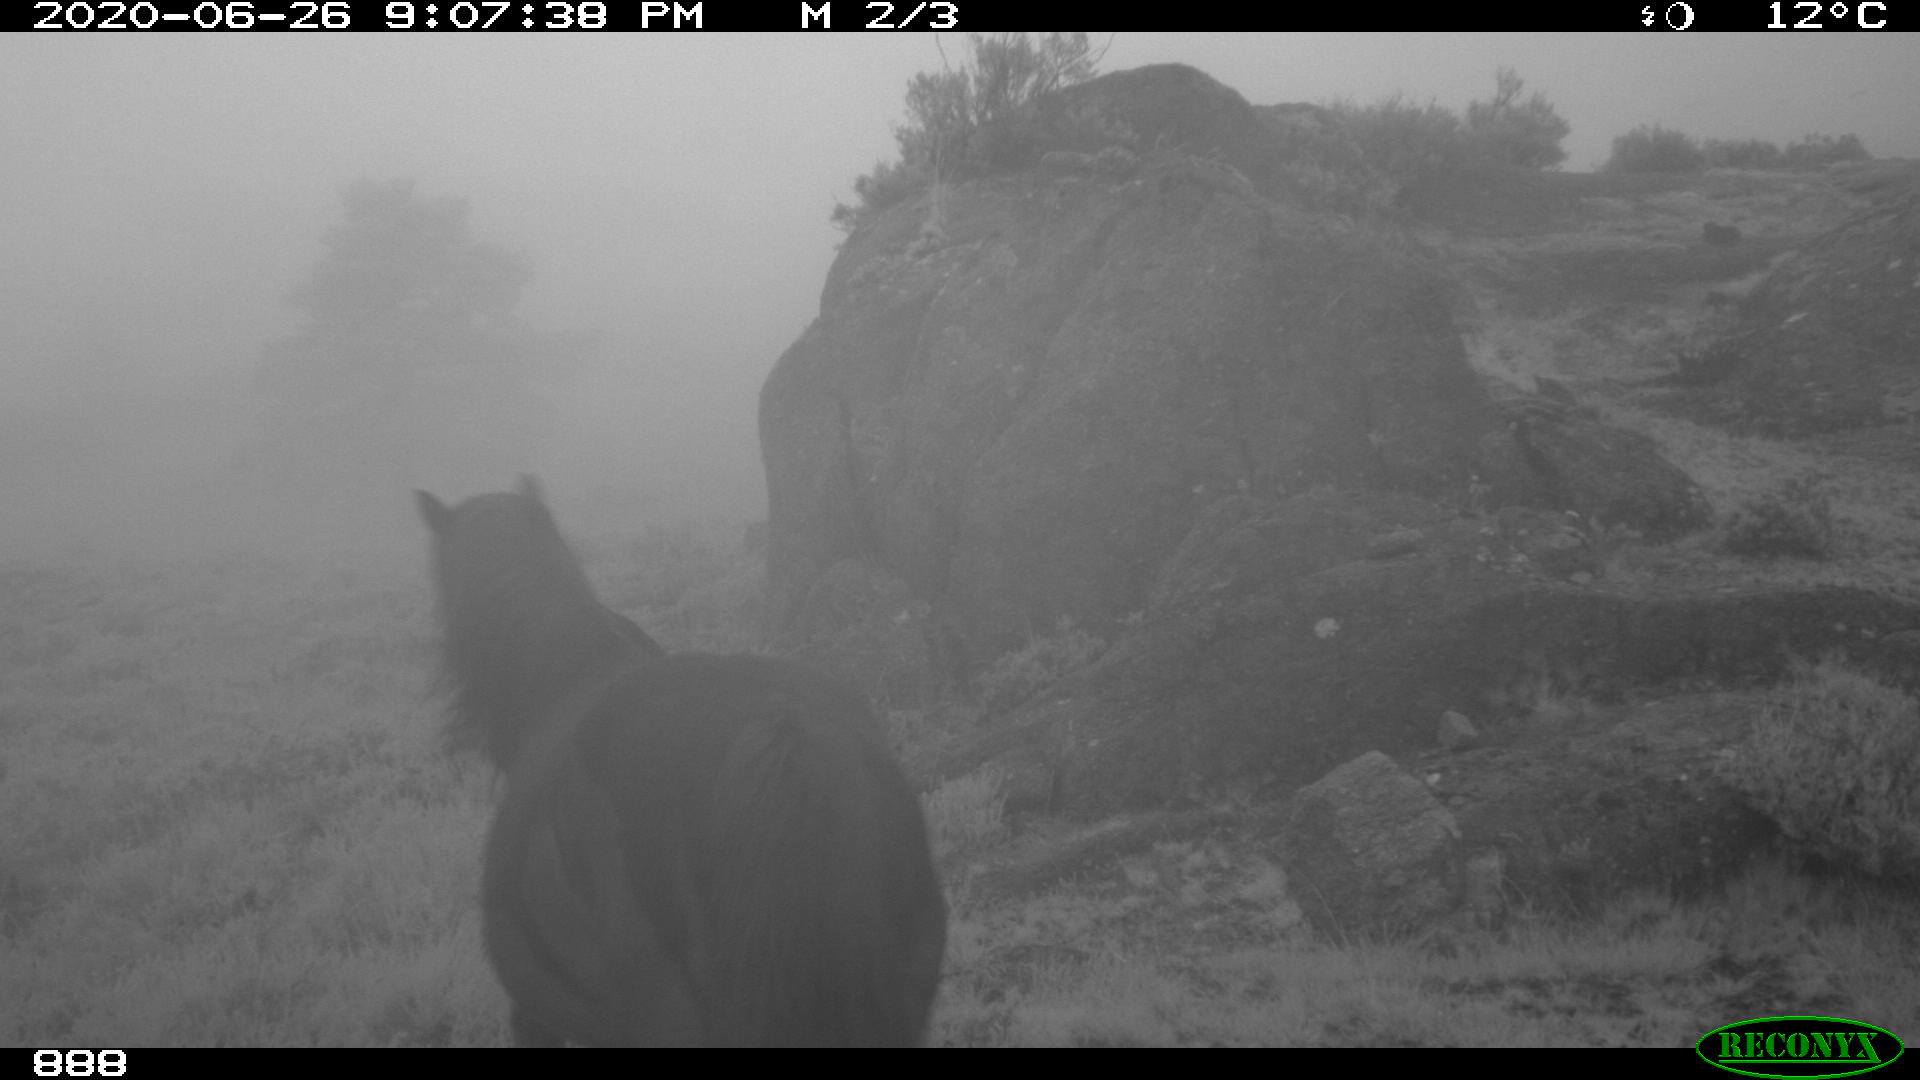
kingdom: Animalia
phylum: Chordata
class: Mammalia
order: Perissodactyla
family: Equidae
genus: Equus
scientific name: Equus caballus
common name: Horse
